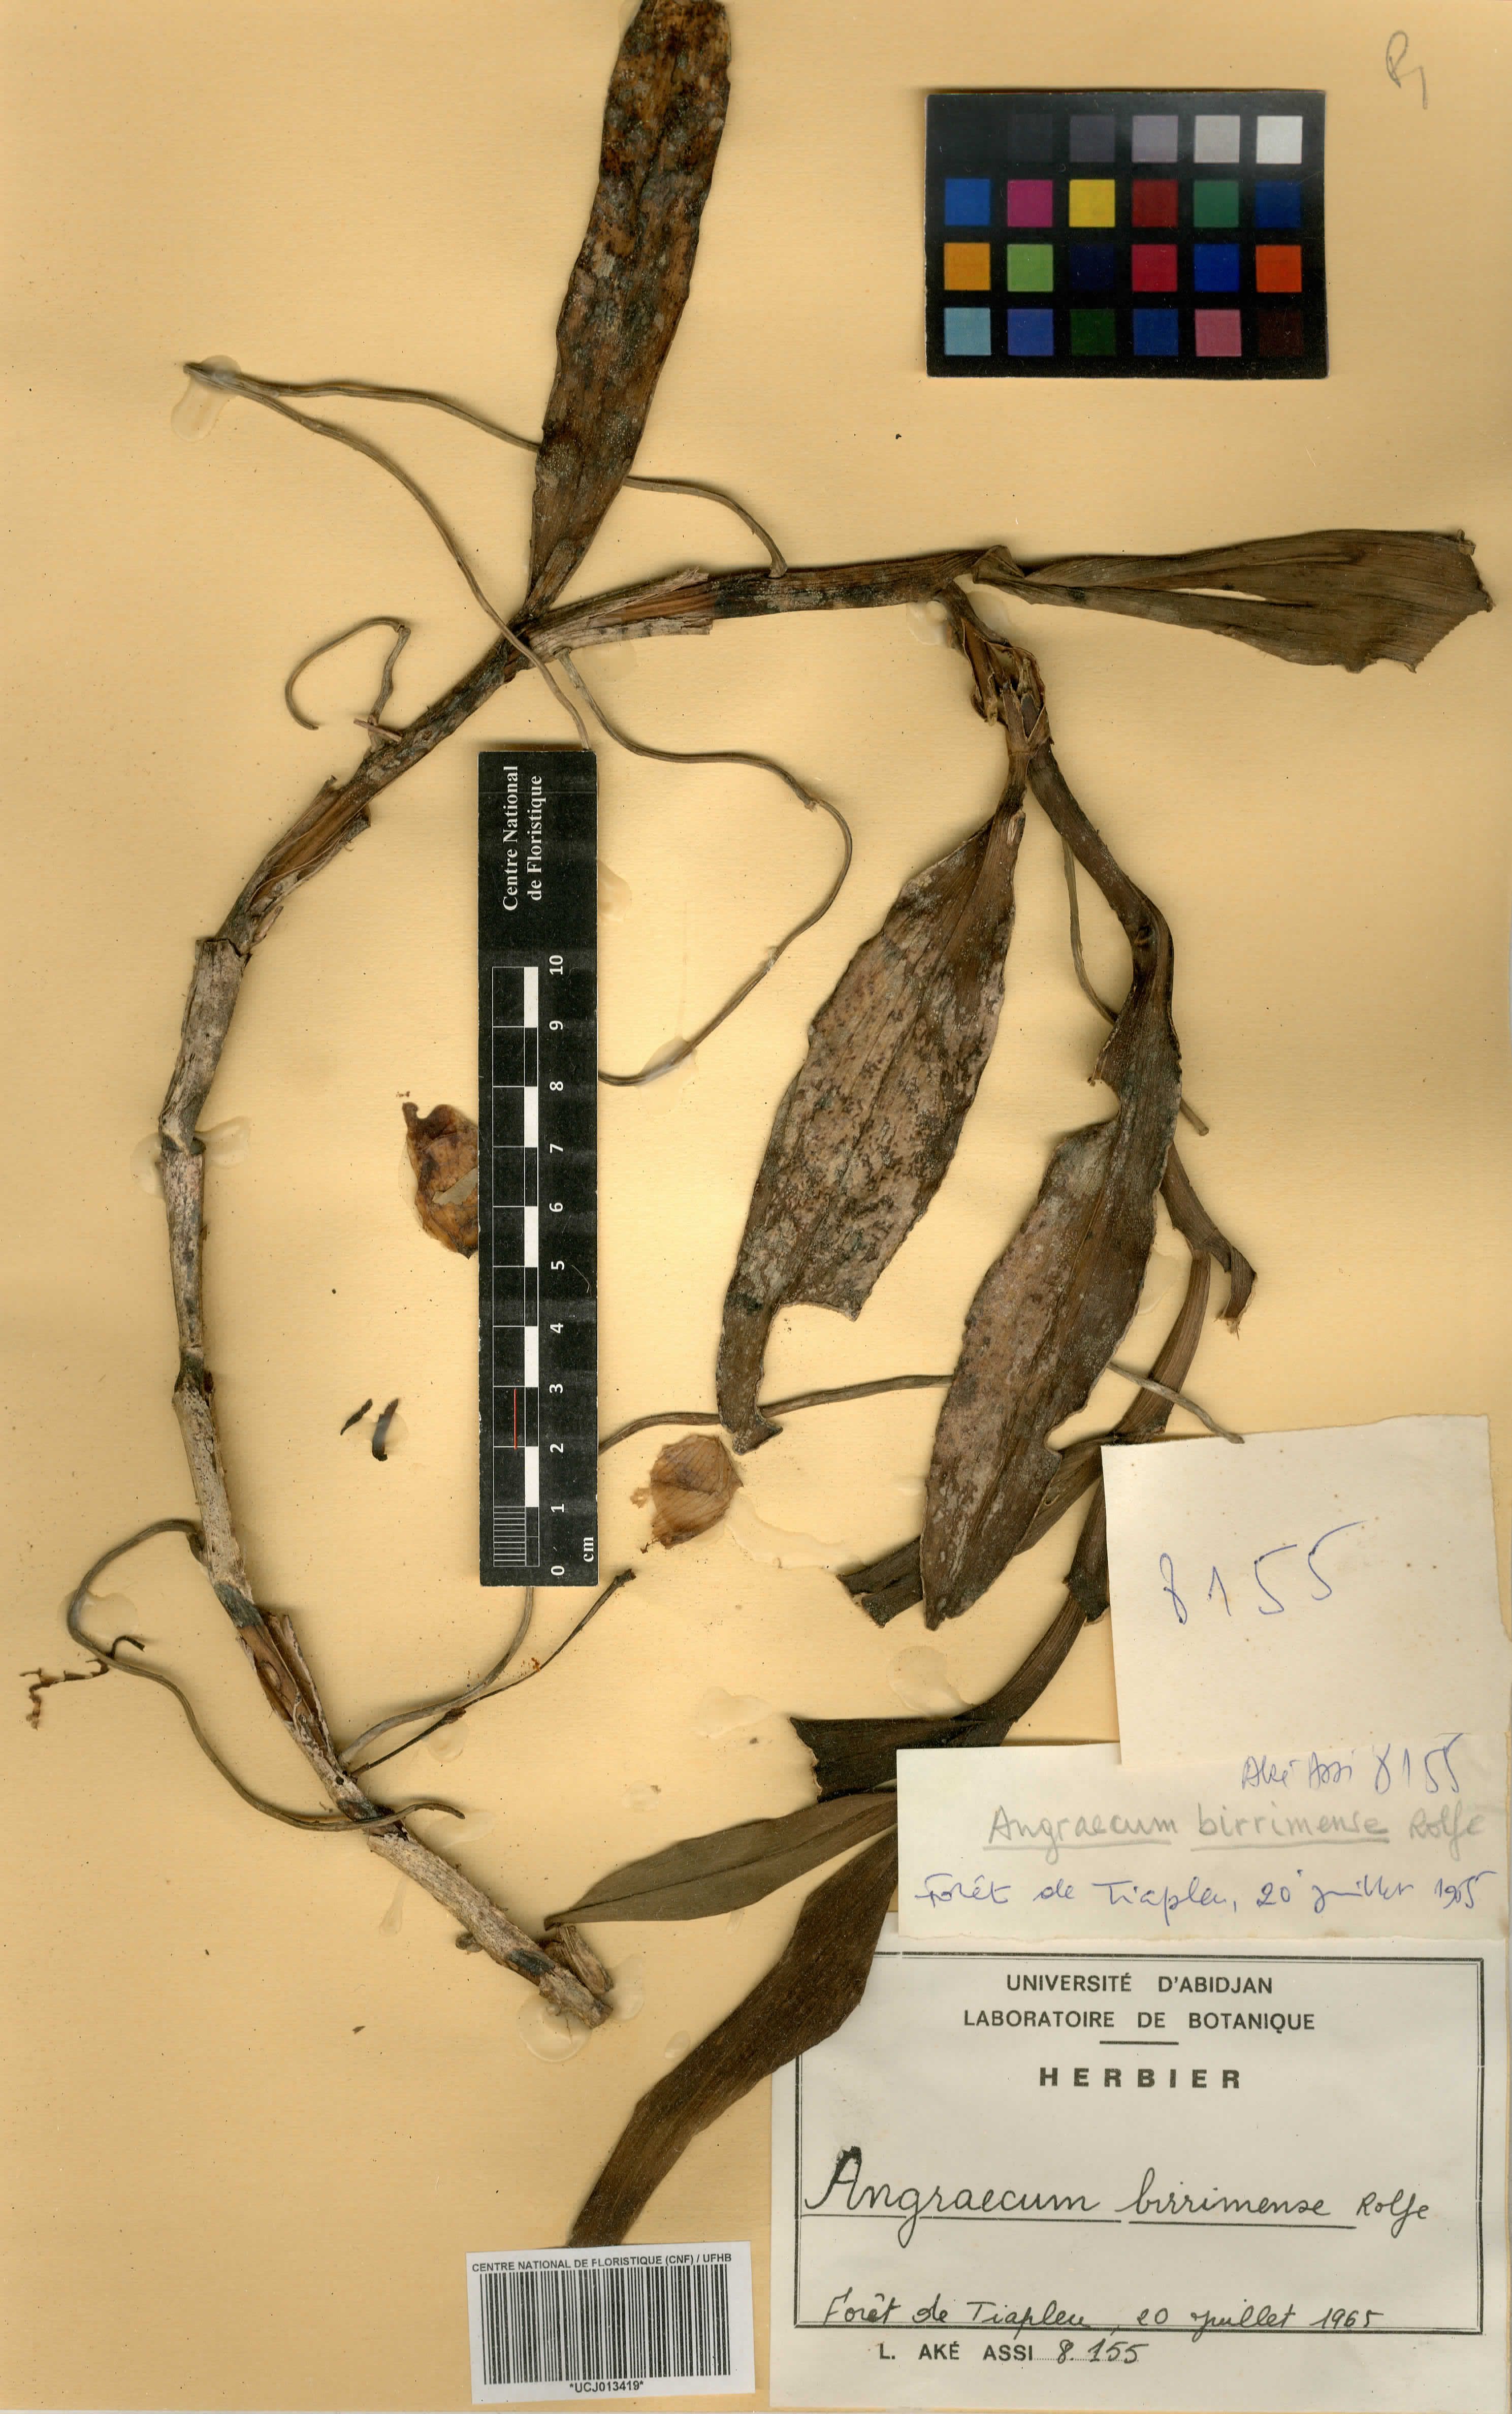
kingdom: Plantae
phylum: Tracheophyta
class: Liliopsida
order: Asparagales
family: Orchidaceae
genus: Angraecum
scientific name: Angraecum birrimense
